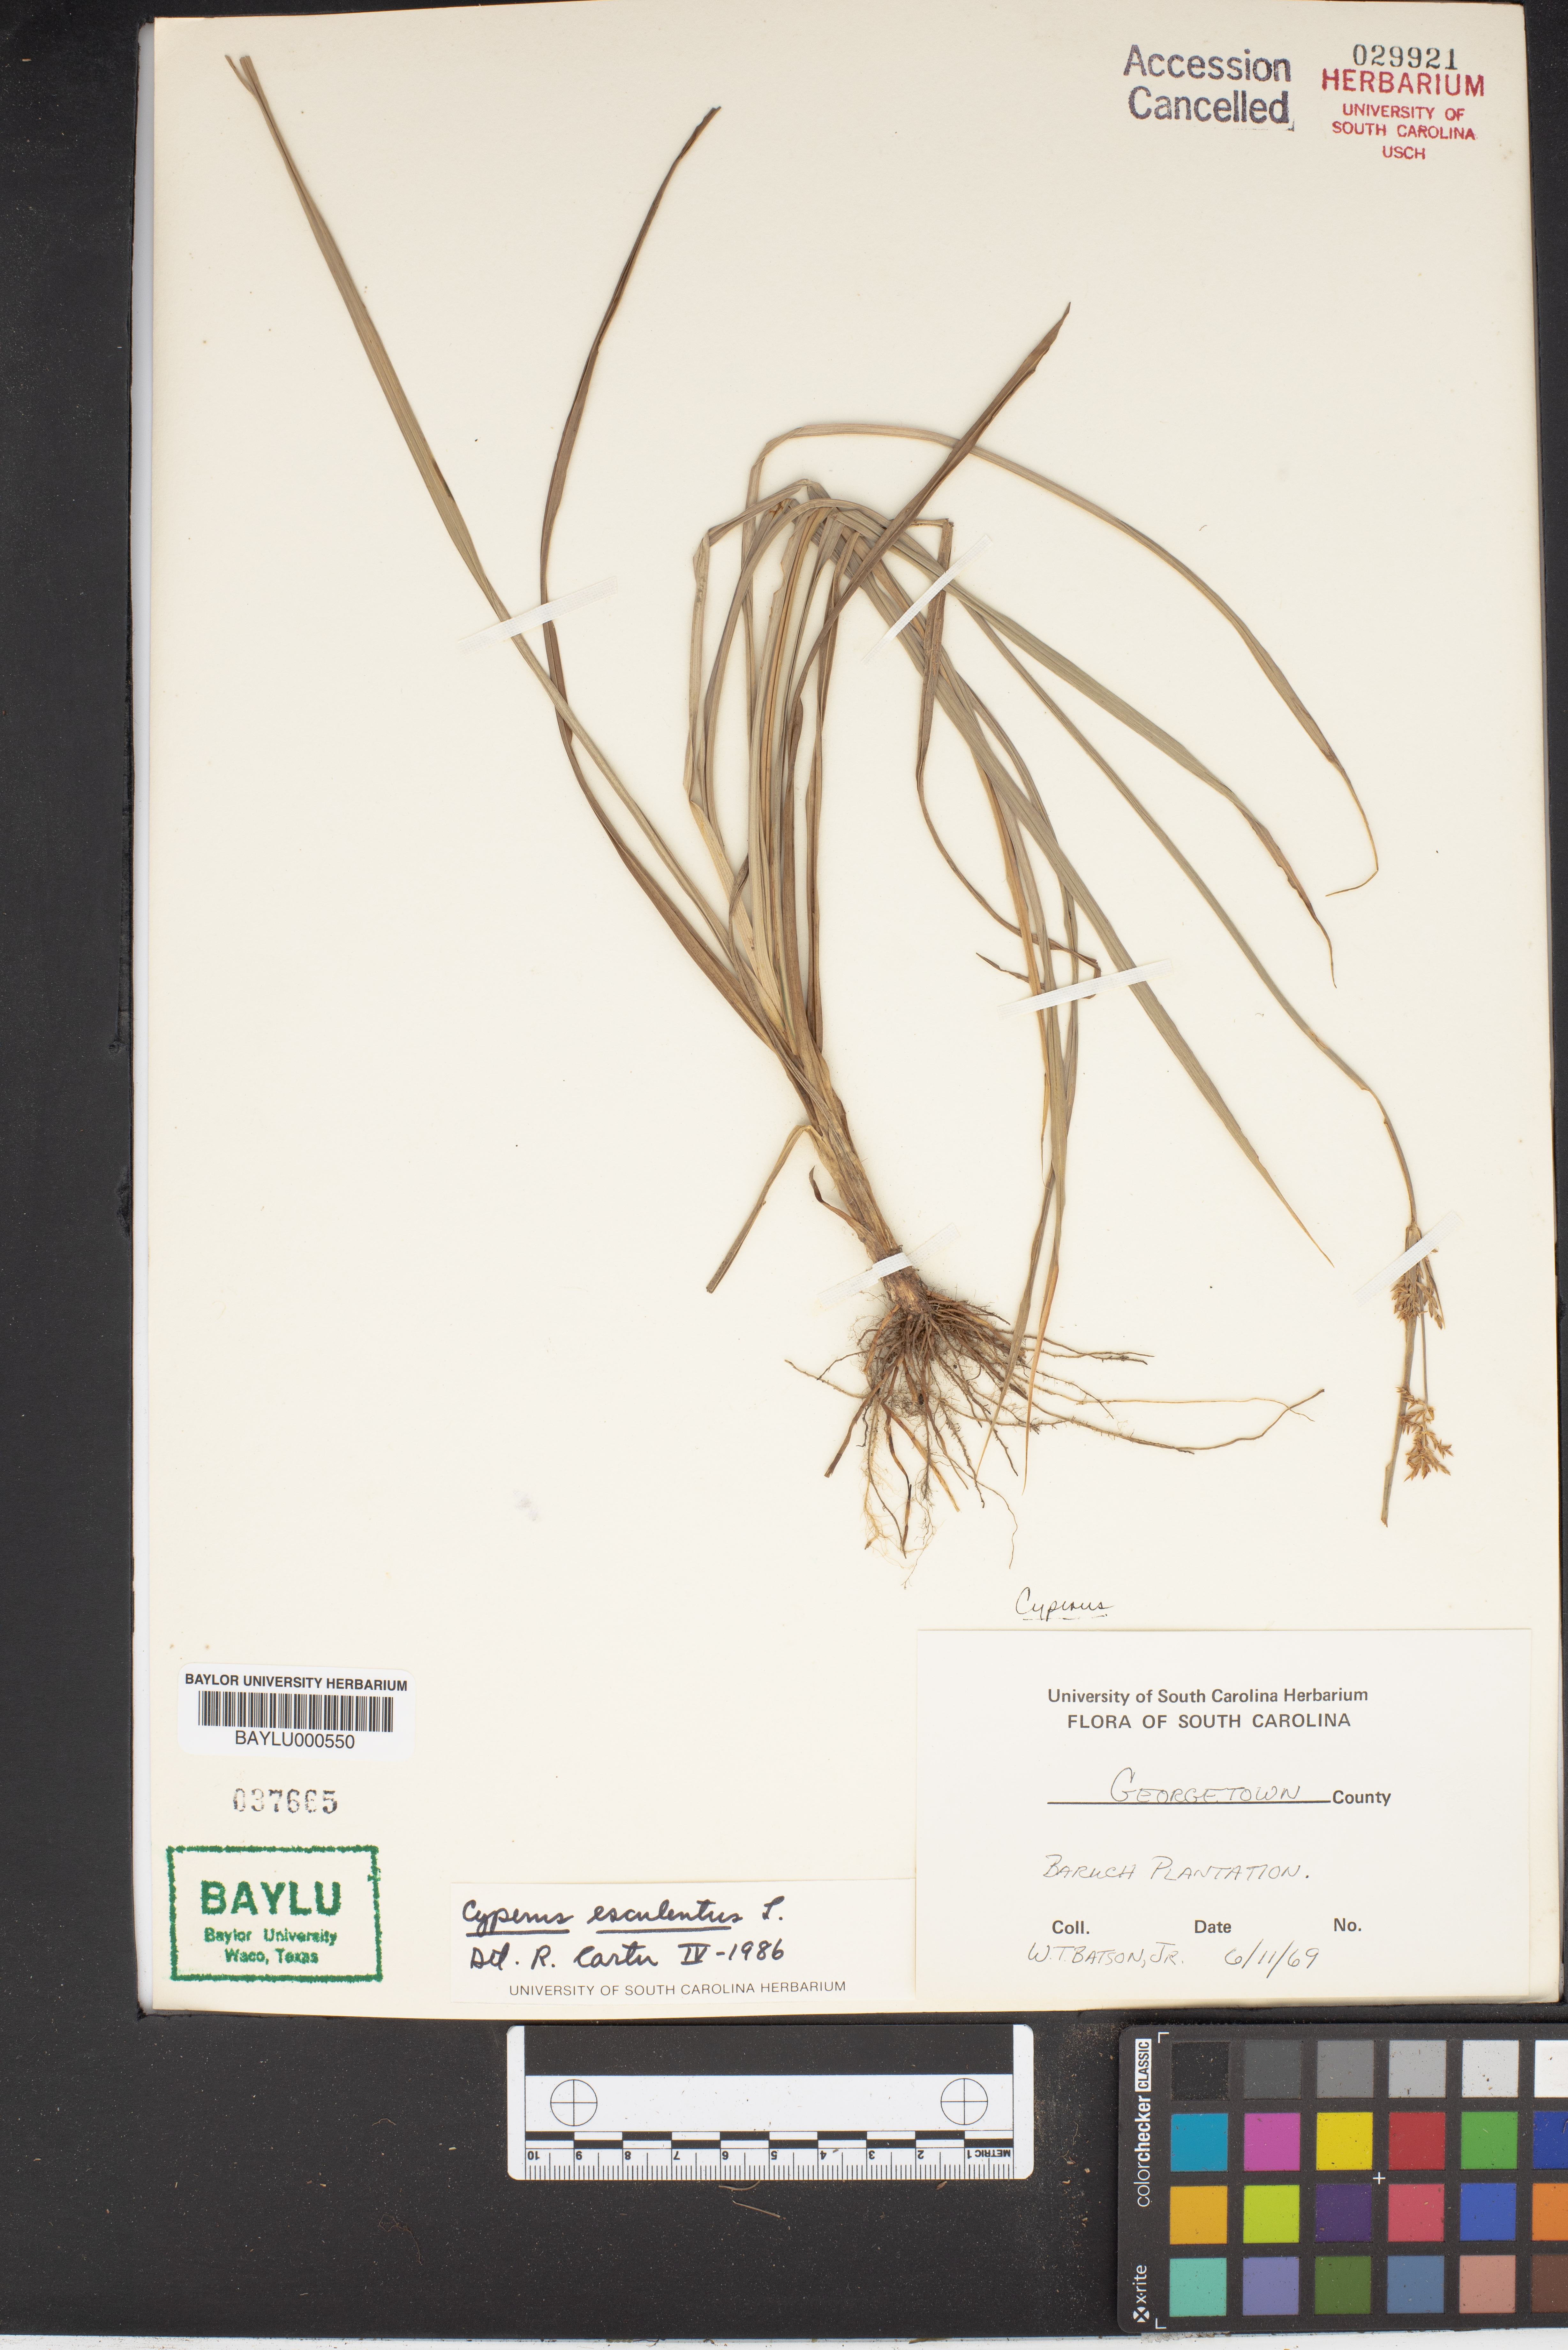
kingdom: Plantae
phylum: Tracheophyta
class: Liliopsida
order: Poales
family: Cyperaceae
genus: Cyperus
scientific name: Cyperus esculentus
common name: Yellow nutsedge
